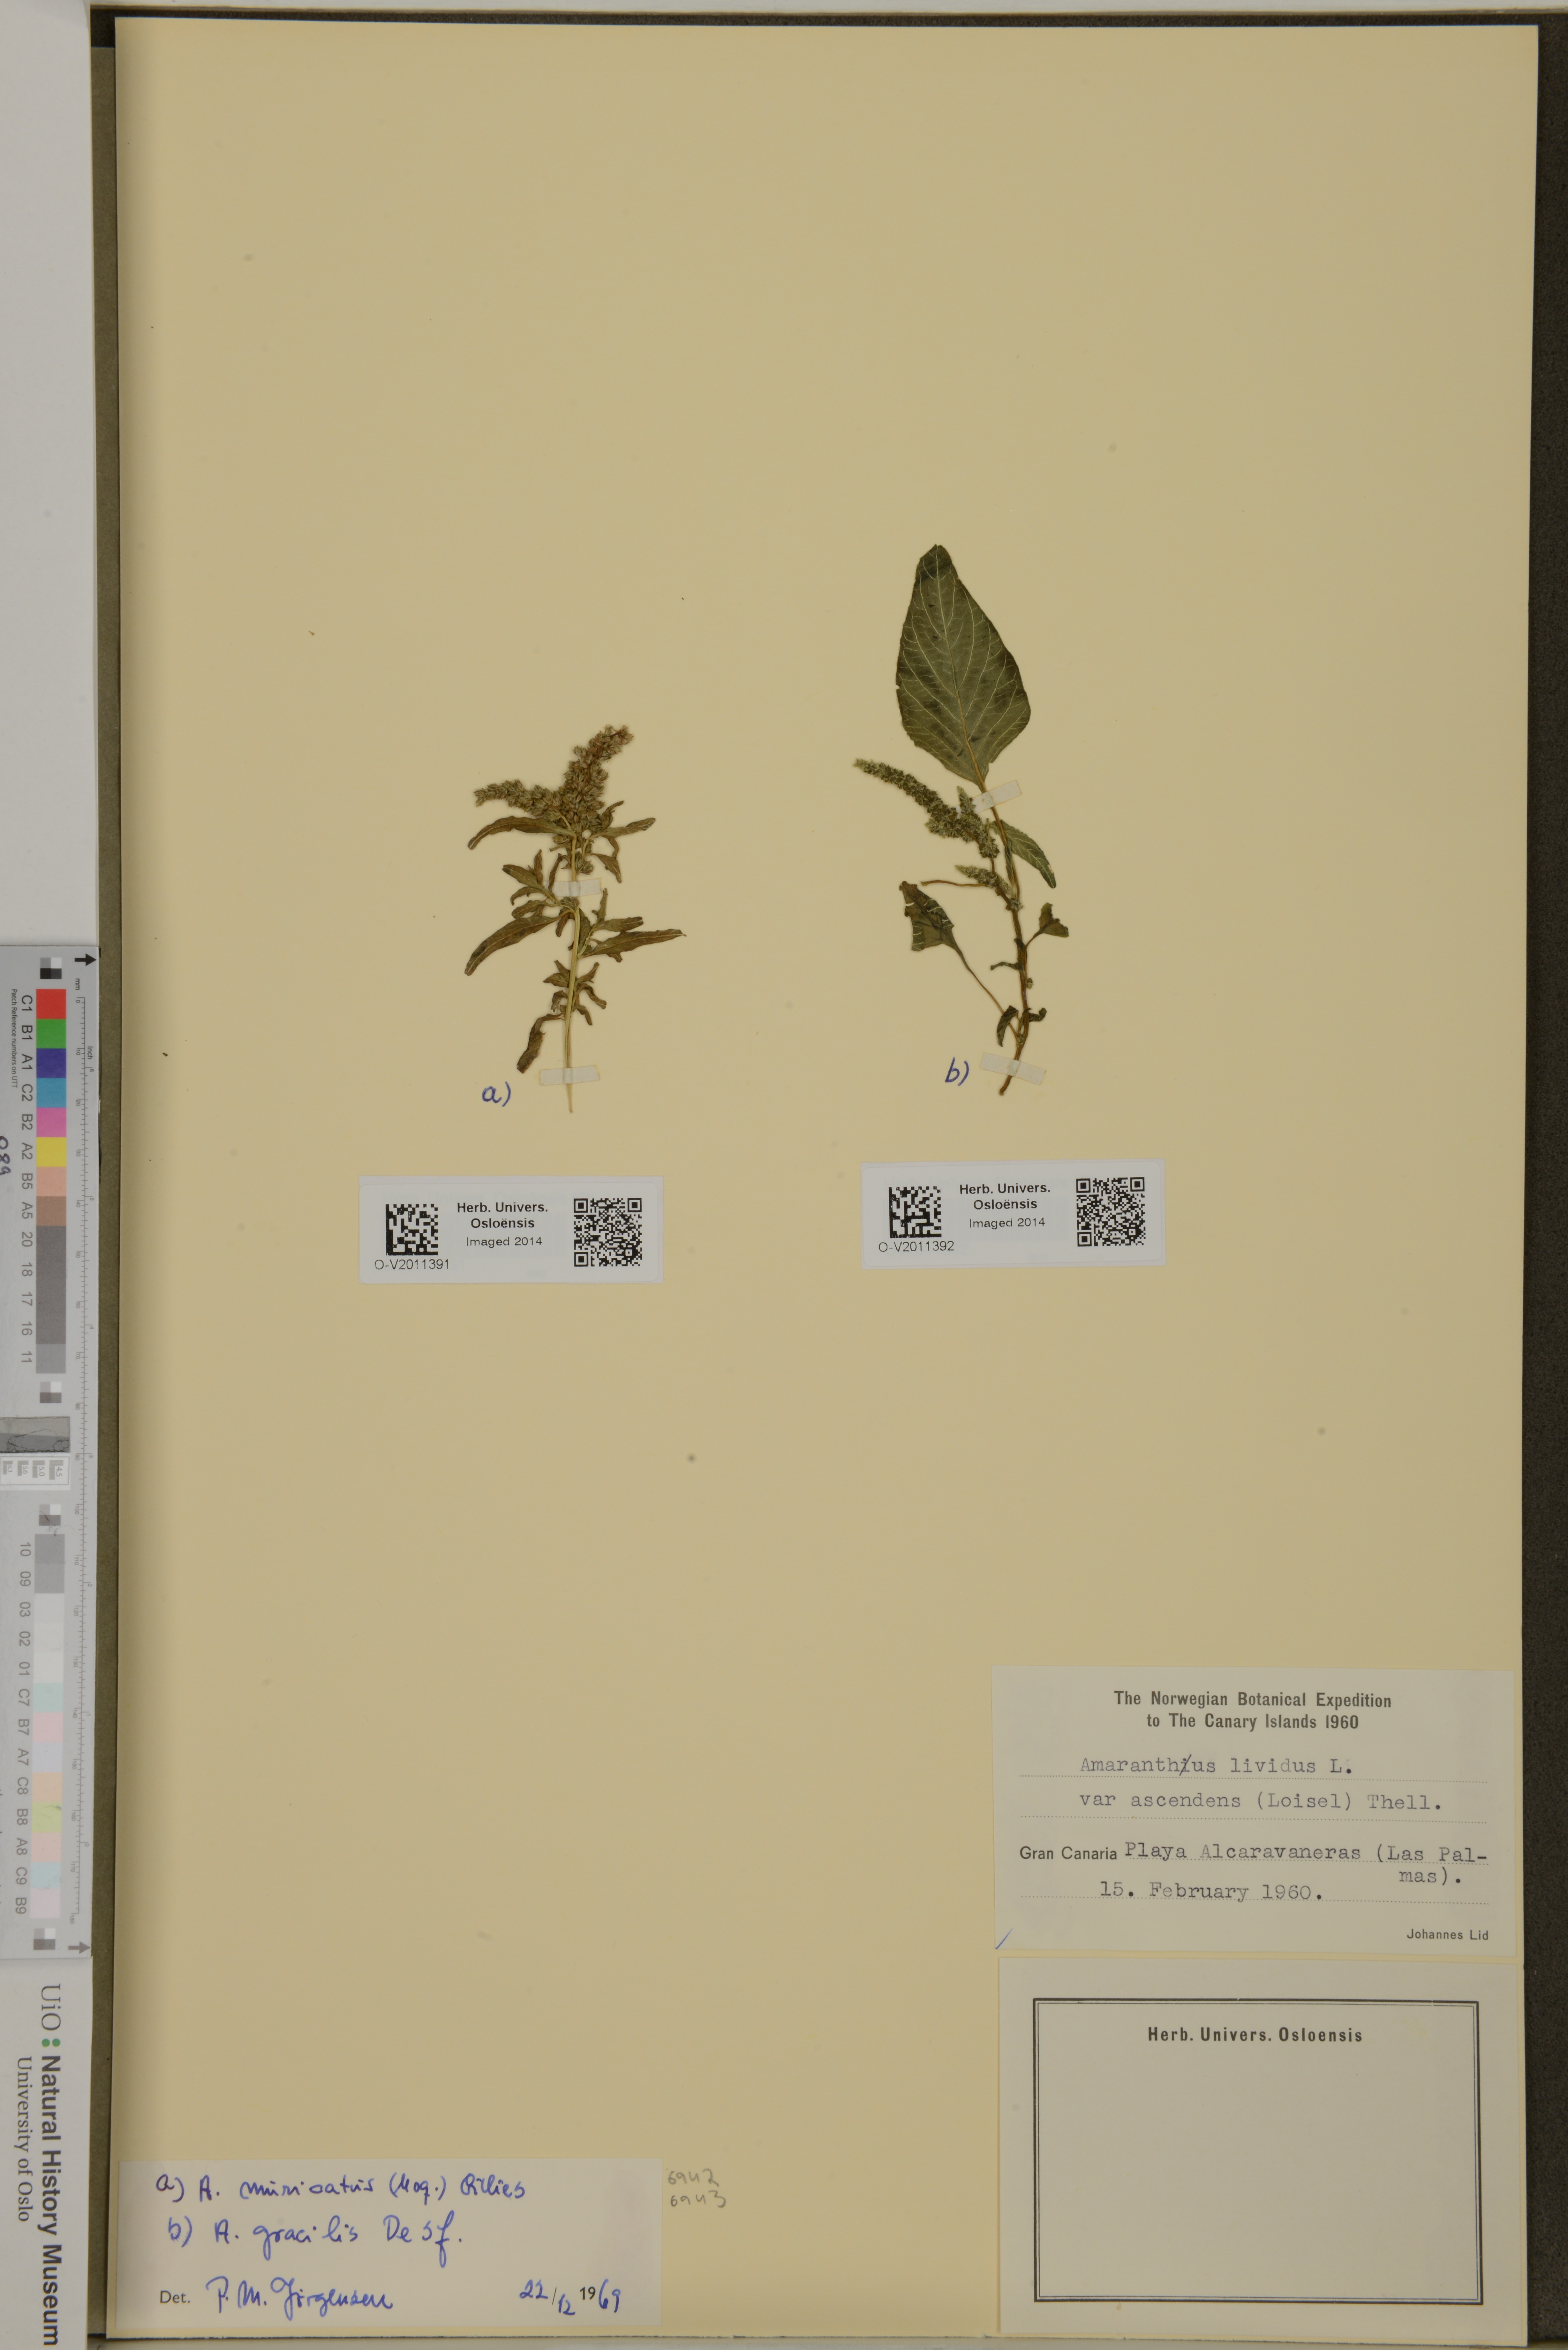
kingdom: Plantae
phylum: Tracheophyta
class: Magnoliopsida
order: Caryophyllales
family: Amaranthaceae
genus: Amaranthus
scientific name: Amaranthus viridis
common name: Slender amaranth
